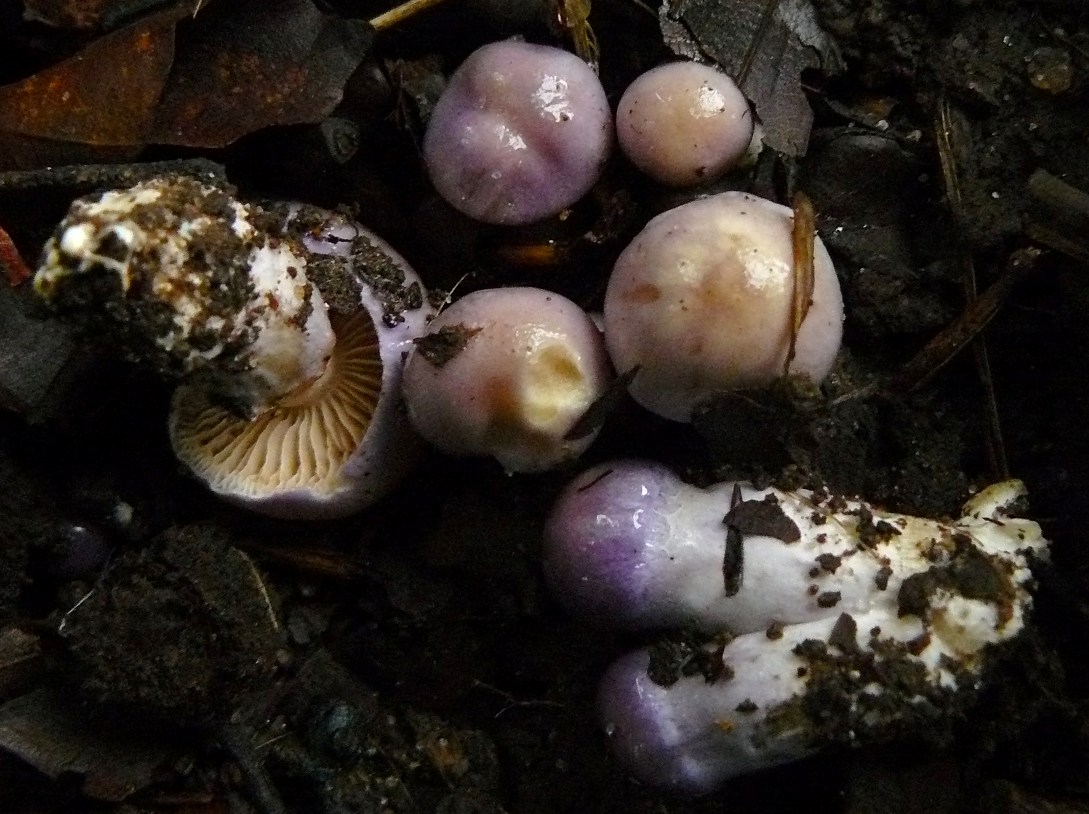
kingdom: Fungi
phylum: Basidiomycota
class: Agaricomycetes
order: Agaricales
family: Cortinariaceae
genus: Thaxterogaster
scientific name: Thaxterogaster croceocoeruleus
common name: blågullig slørhat
